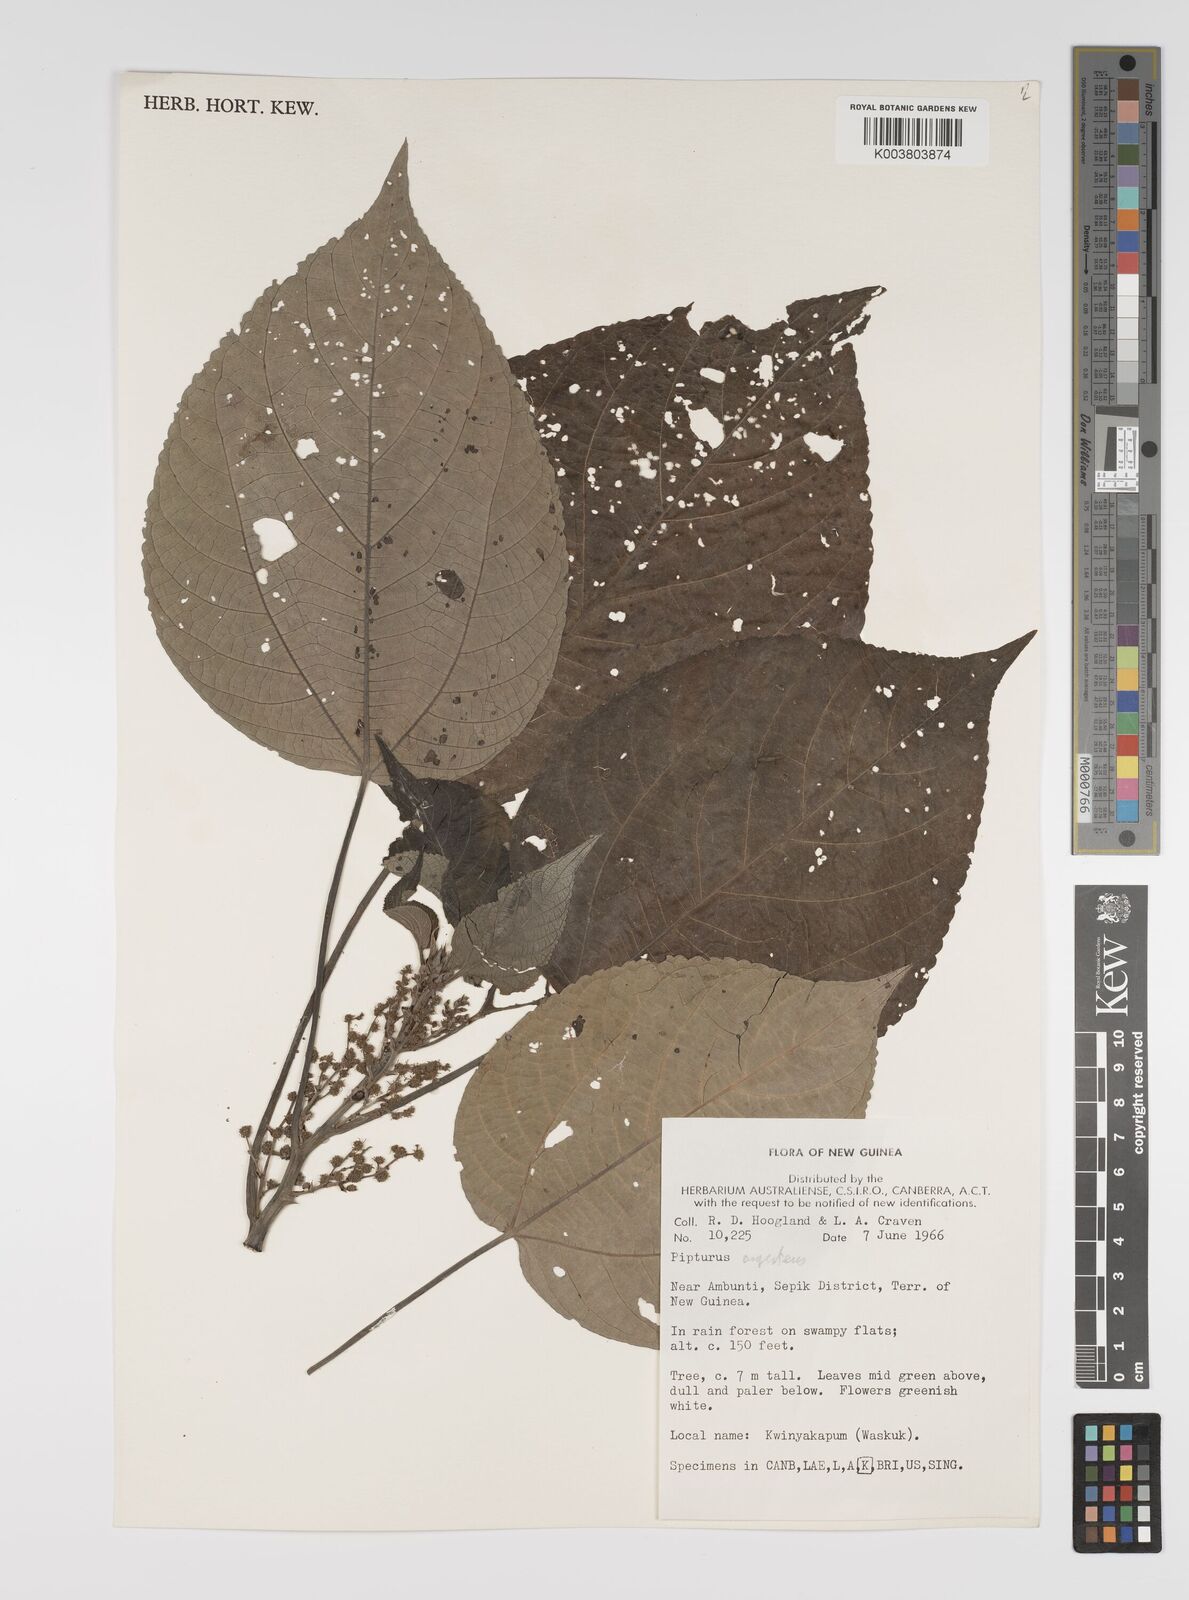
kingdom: Plantae
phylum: Tracheophyta
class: Magnoliopsida
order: Rosales
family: Urticaceae
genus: Pipturus
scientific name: Pipturus argenteus
